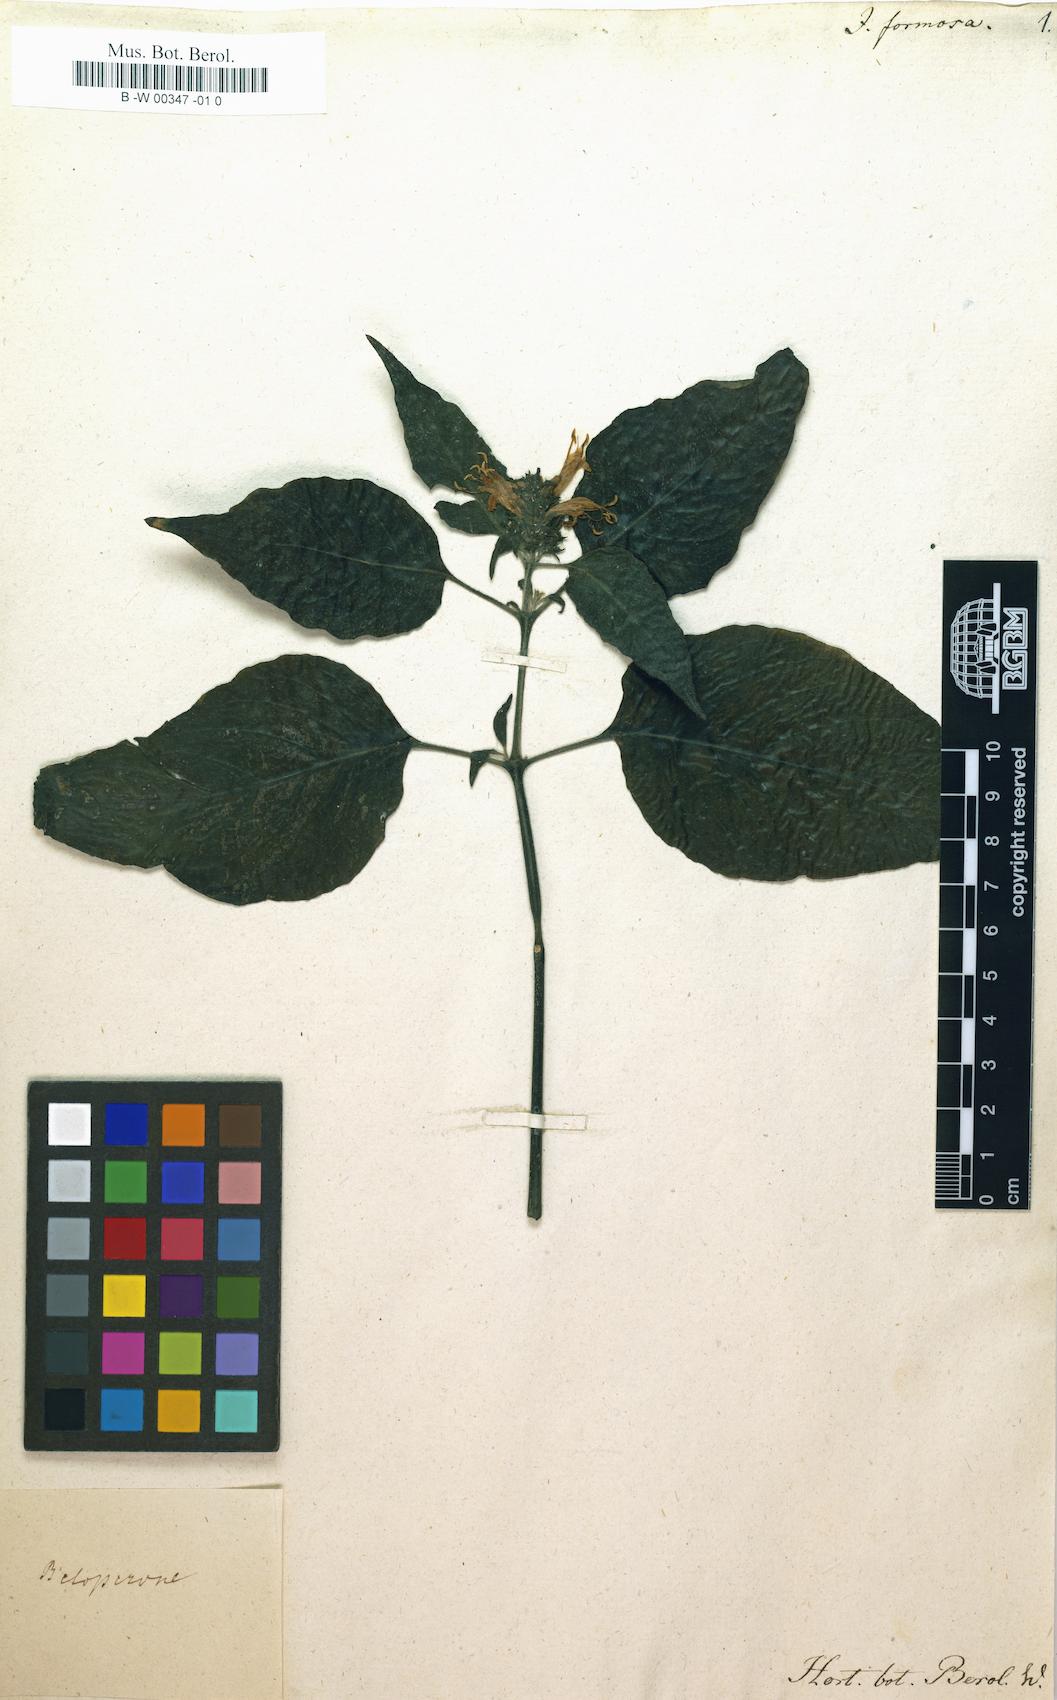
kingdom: Plantae
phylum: Tracheophyta
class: Magnoliopsida
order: Lamiales
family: Acanthaceae
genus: Justicia
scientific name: Justicia nemorosa
